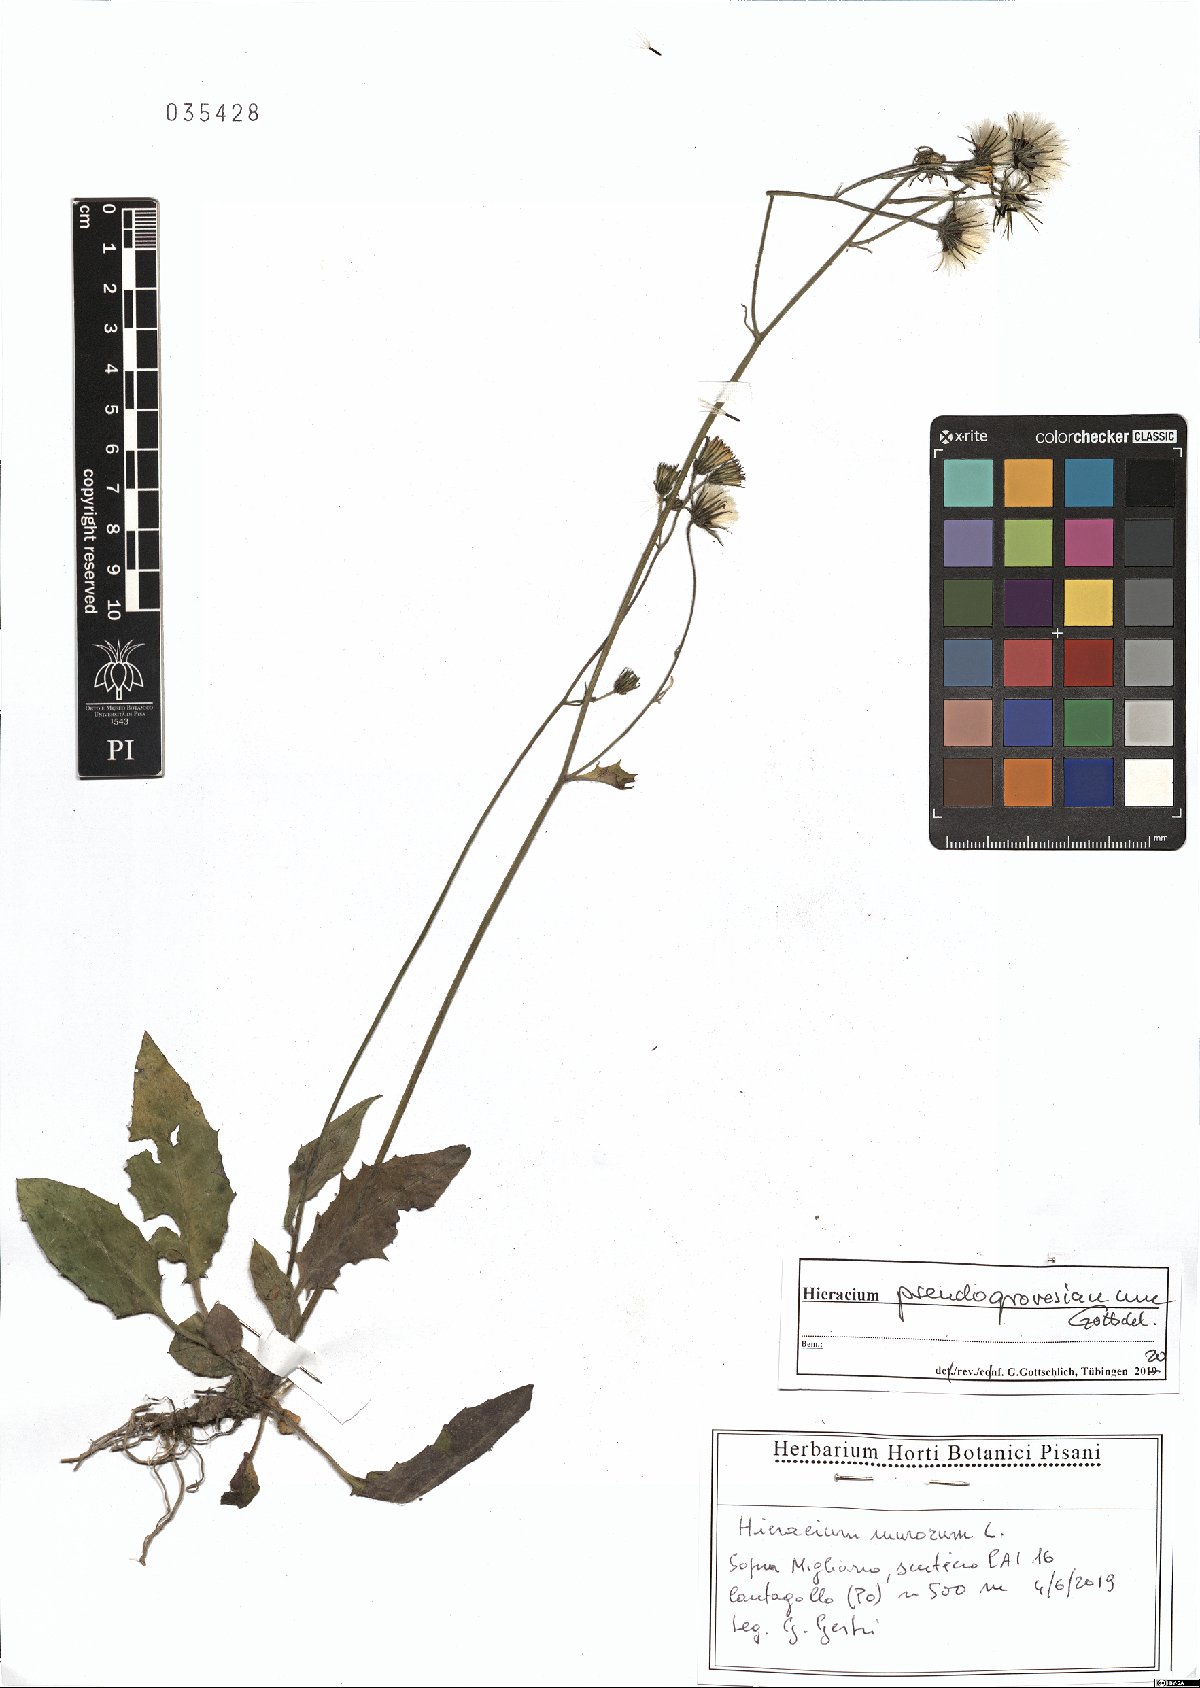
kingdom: Plantae
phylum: Tracheophyta
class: Magnoliopsida
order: Asterales
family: Asteraceae
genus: Hieracium
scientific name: Hieracium pseudogrovesianum
